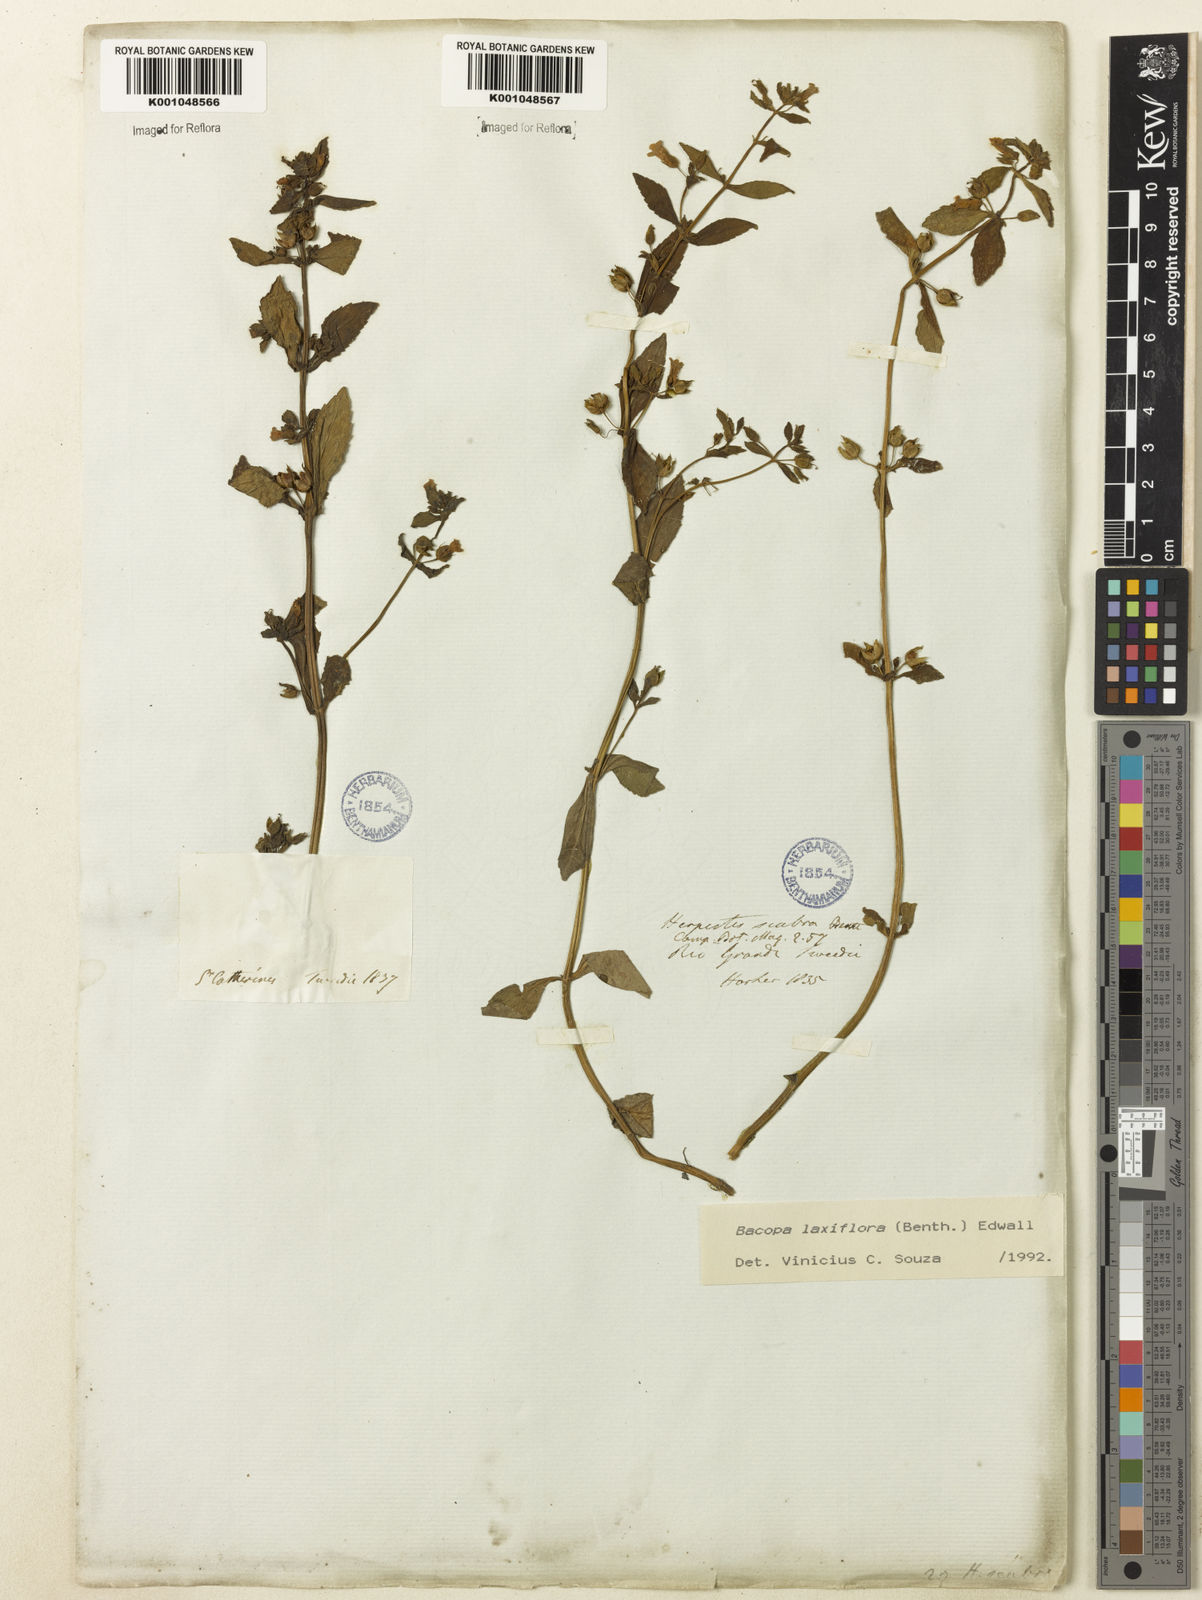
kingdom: Plantae
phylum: Tracheophyta
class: Magnoliopsida
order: Lamiales
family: Plantaginaceae
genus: Bacopa
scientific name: Bacopa laxiflora
